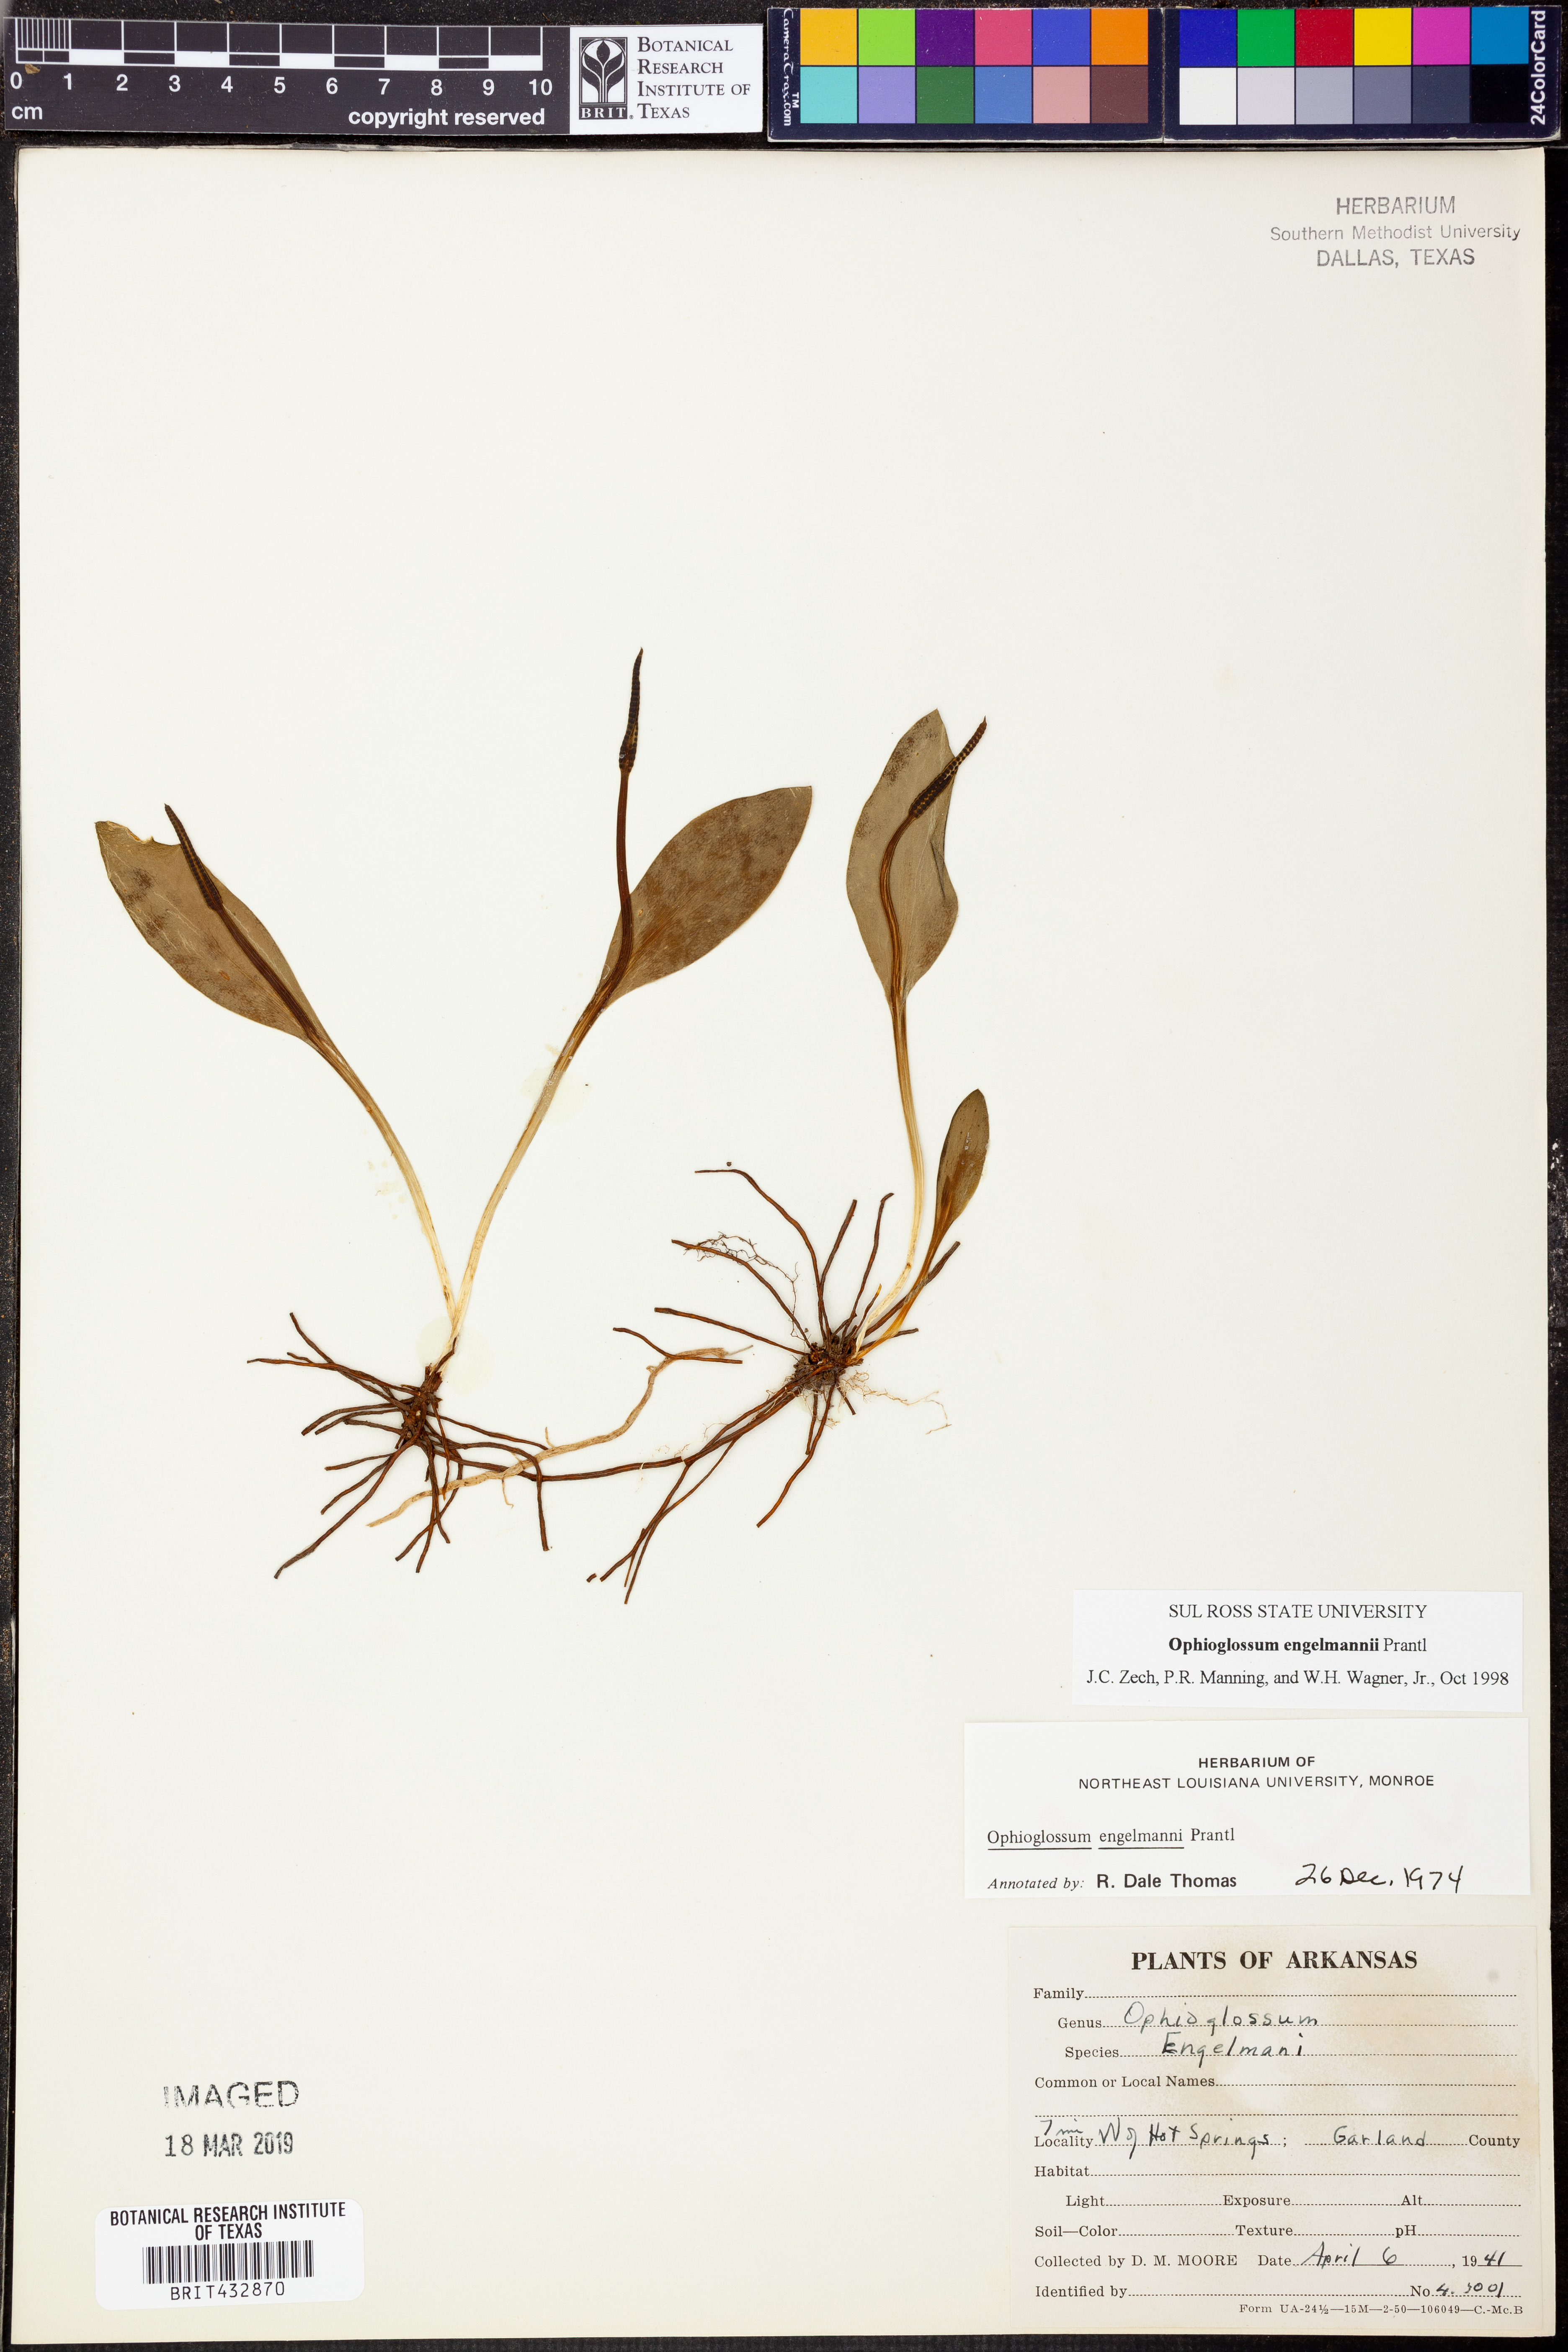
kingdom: Plantae
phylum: Tracheophyta
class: Polypodiopsida
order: Ophioglossales
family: Ophioglossaceae
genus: Ophioglossum
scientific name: Ophioglossum engelmannii
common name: Limestone adder's-tongue
